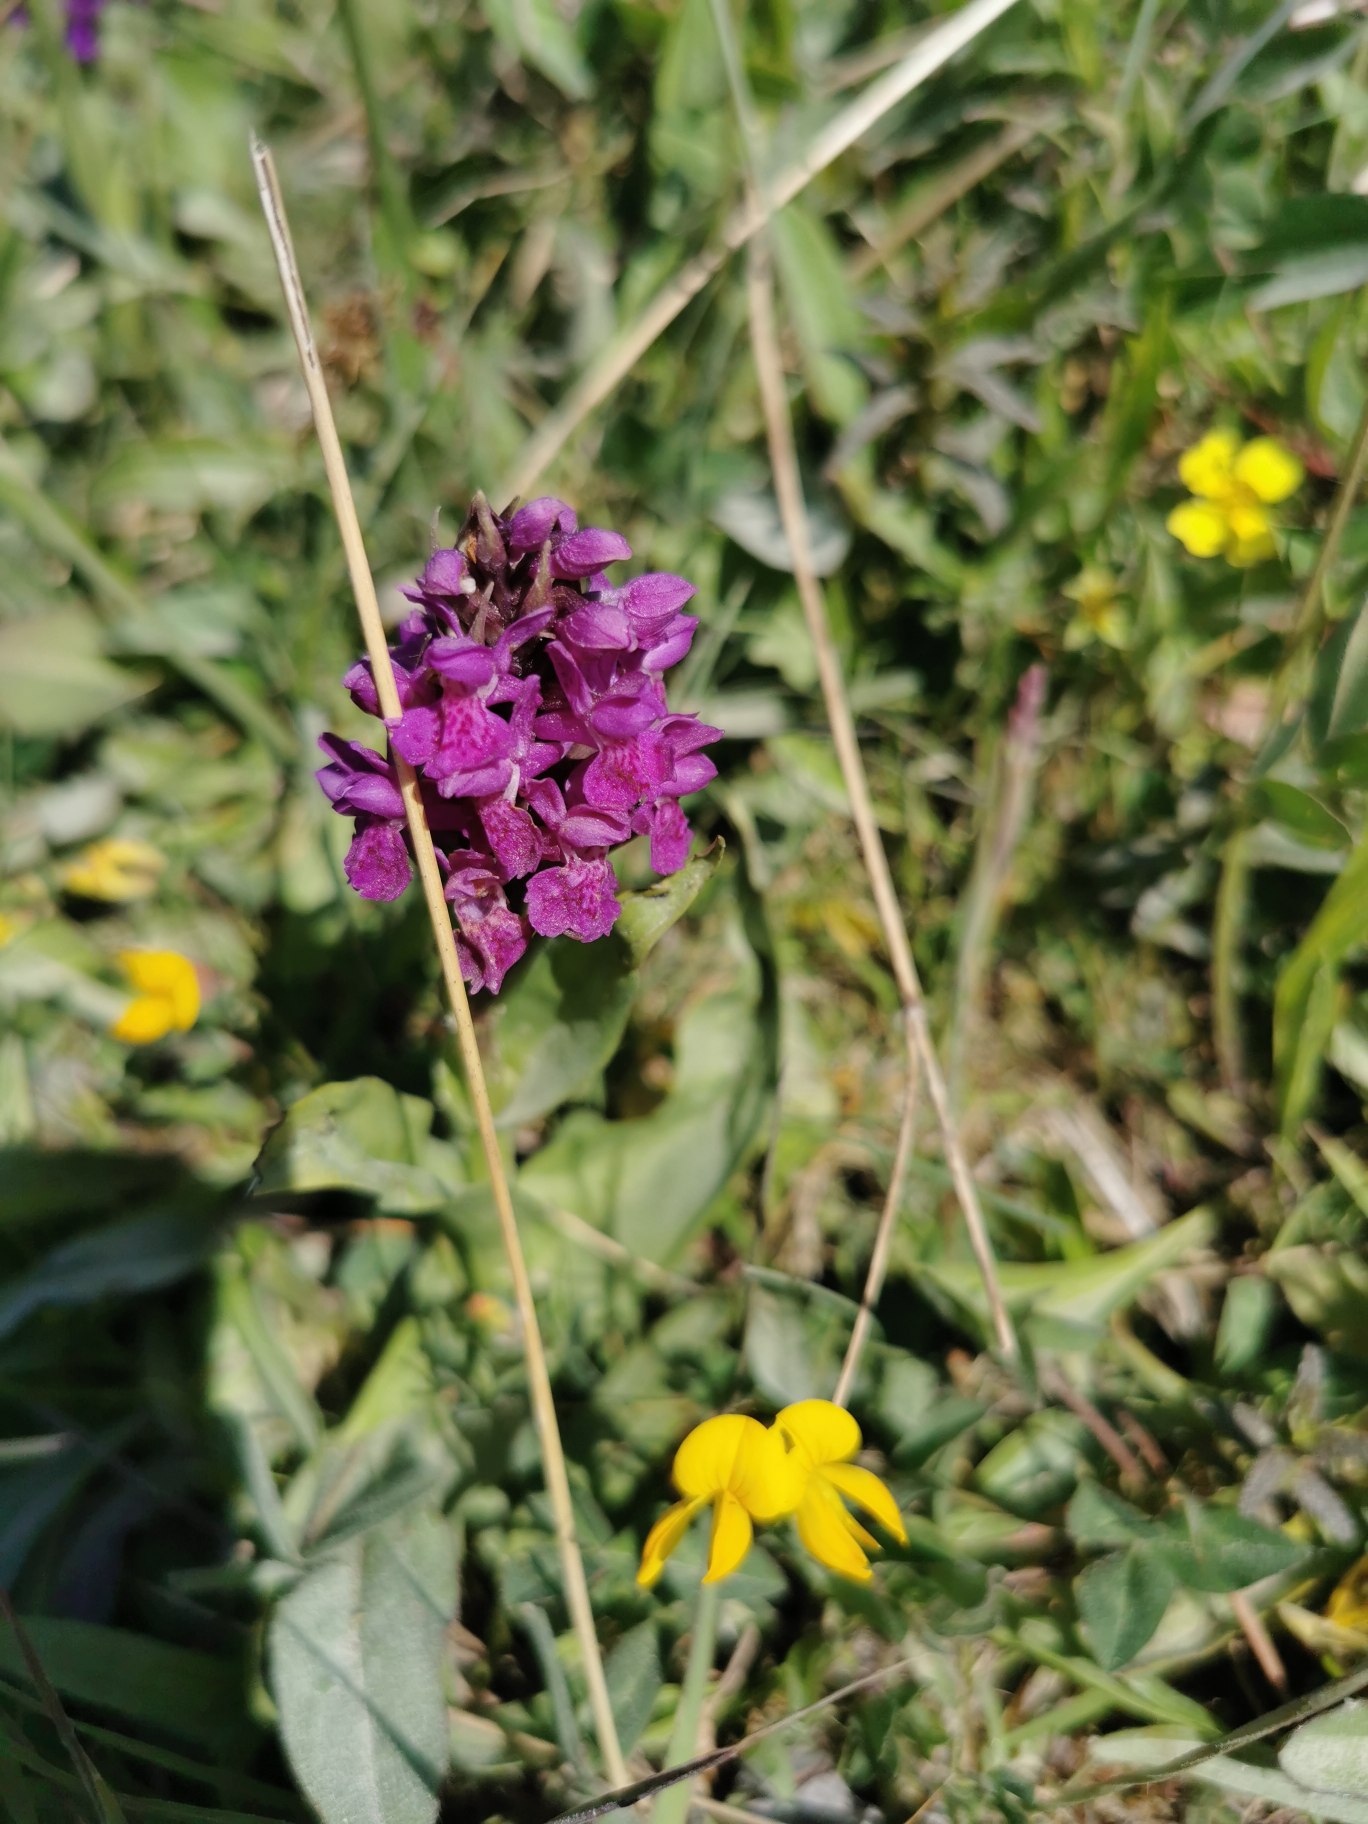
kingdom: Plantae
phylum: Tracheophyta
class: Liliopsida
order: Asparagales
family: Orchidaceae
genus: Dactylorhiza
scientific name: Dactylorhiza majalis
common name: Maj-gøgeurt
